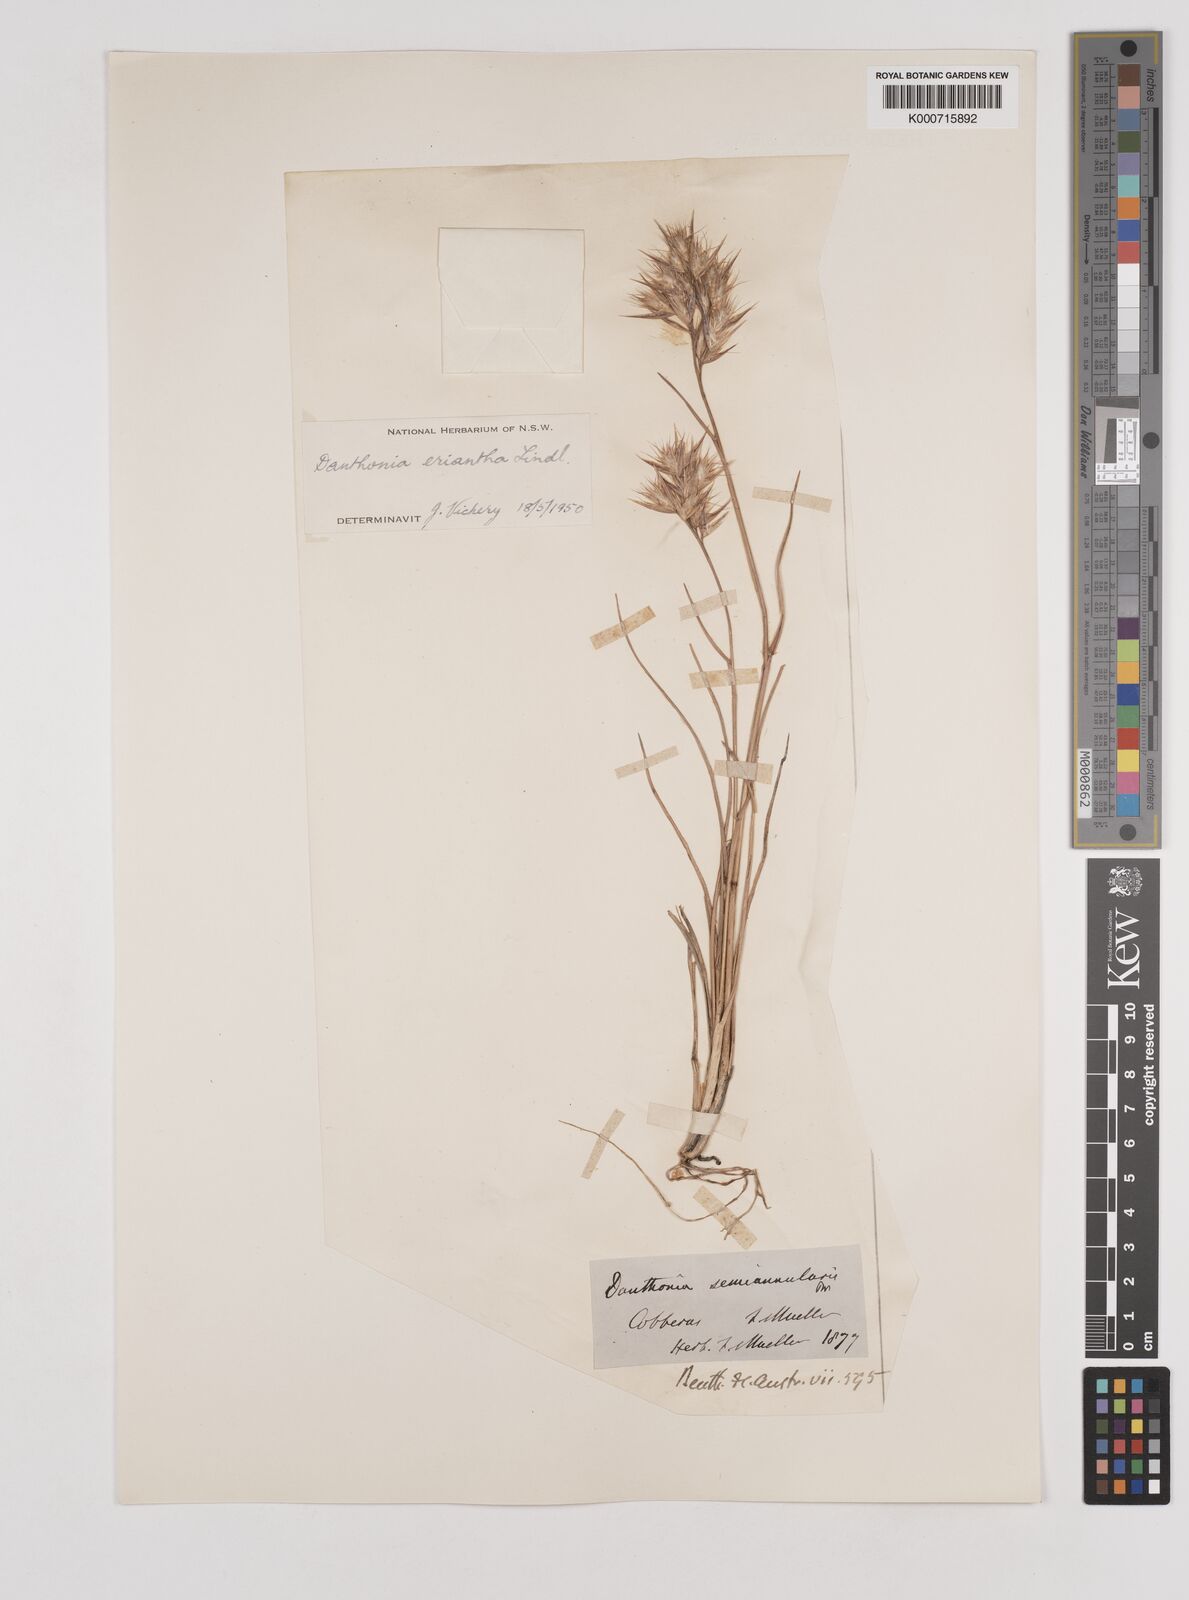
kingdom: Plantae
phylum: Tracheophyta
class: Liliopsida
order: Poales
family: Poaceae
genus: Rytidosperma
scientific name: Rytidosperma erianthum
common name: Hill wallaby grass
